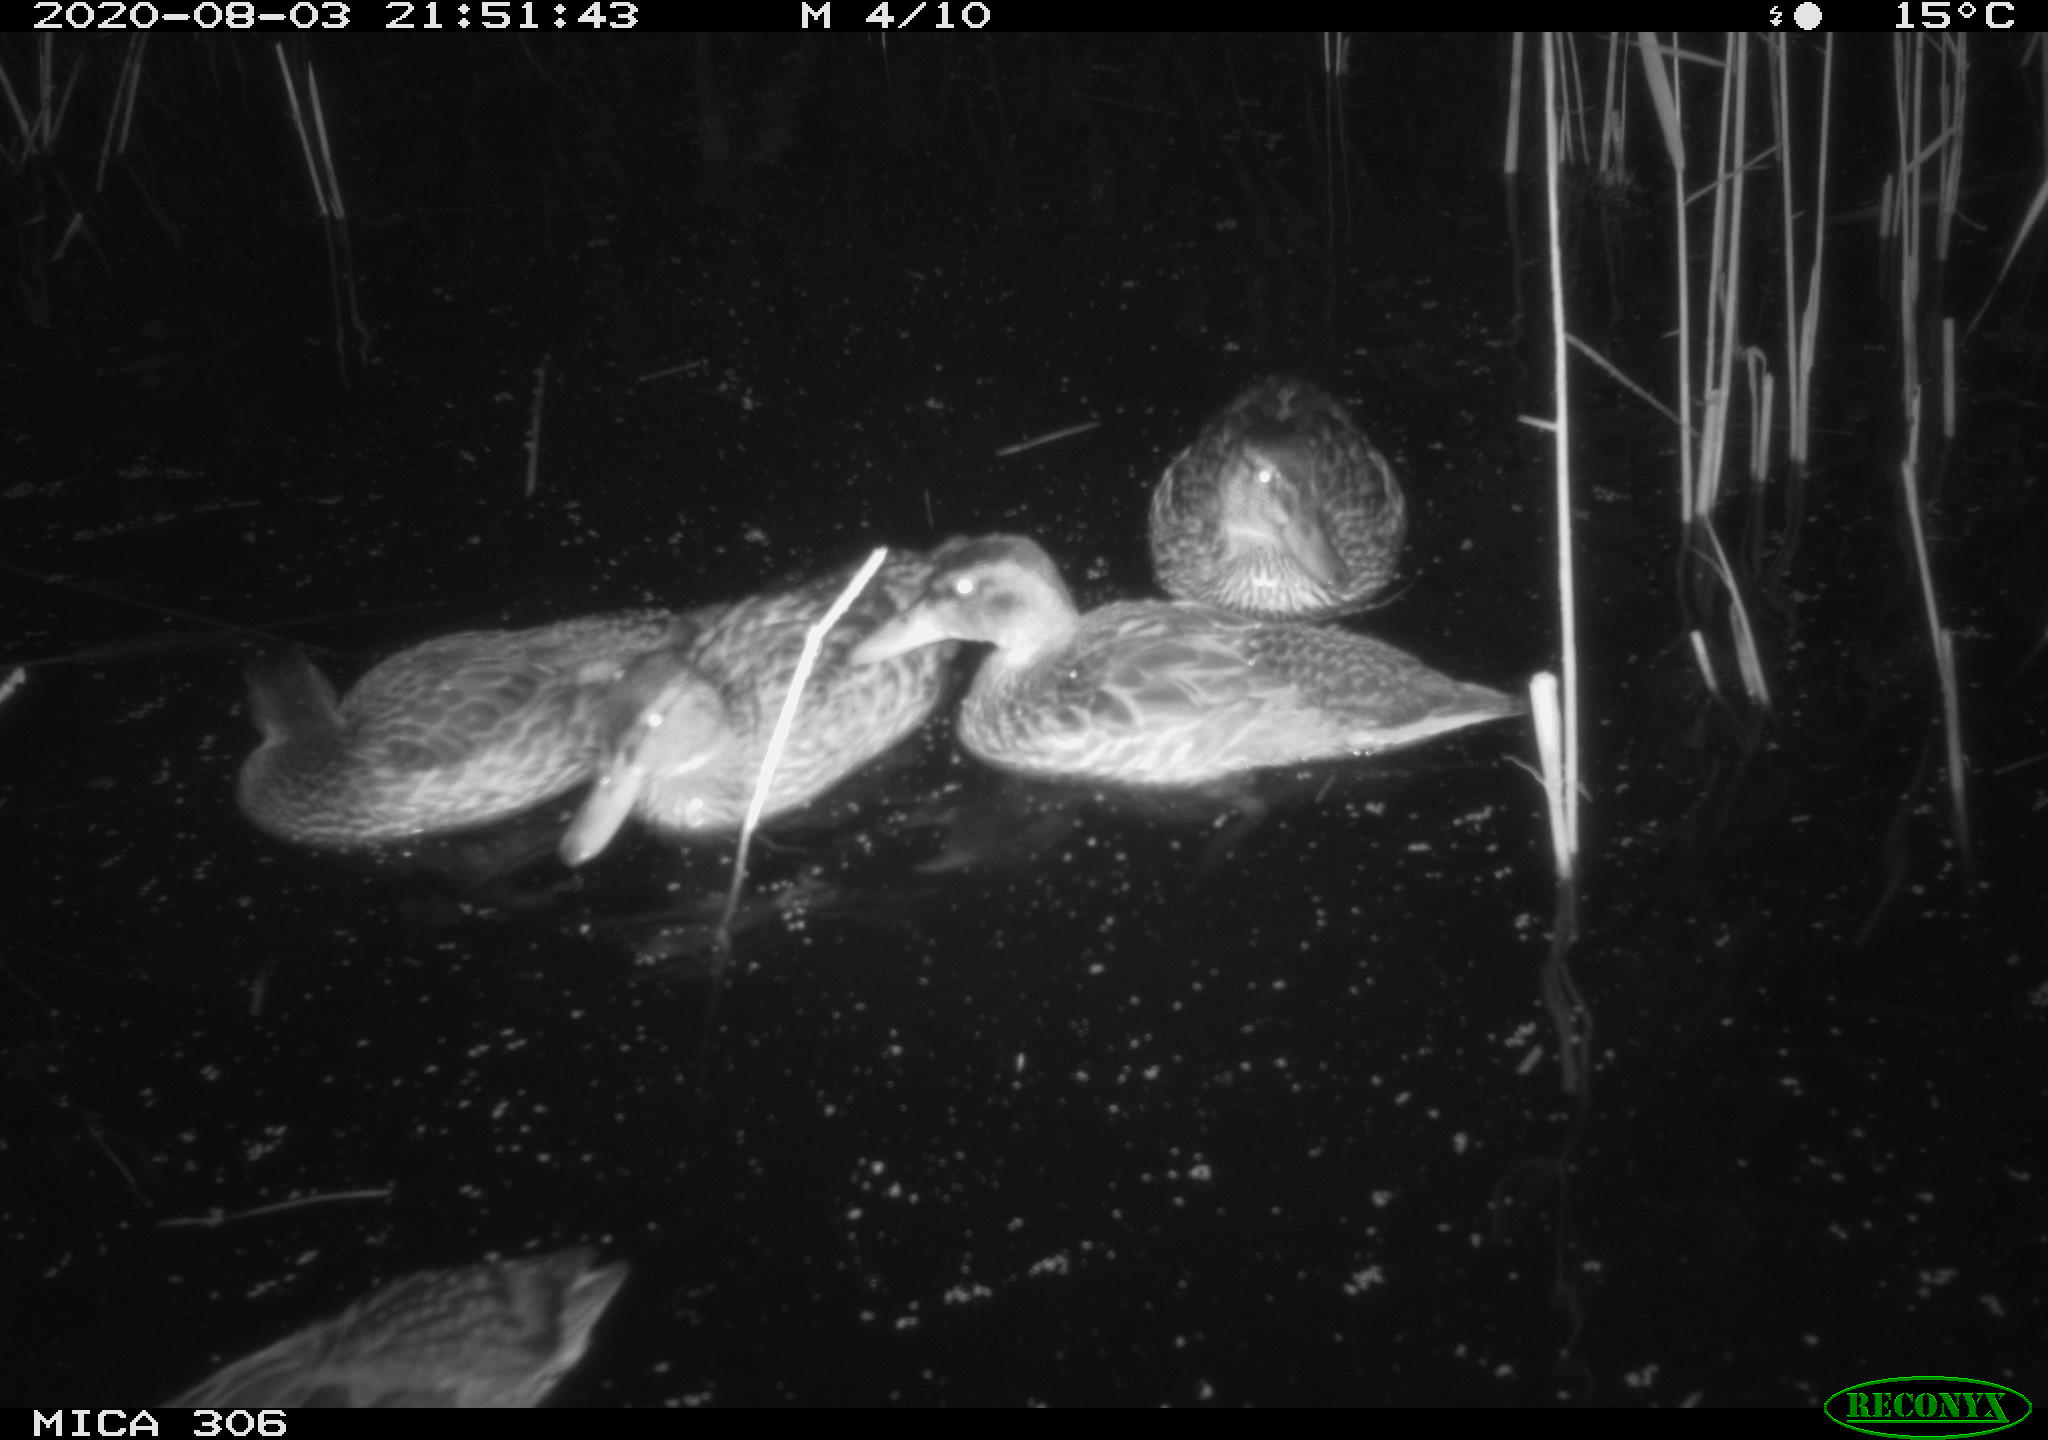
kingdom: Animalia
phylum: Chordata
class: Aves
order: Anseriformes
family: Anatidae
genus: Anas
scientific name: Anas platyrhynchos
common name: Mallard
